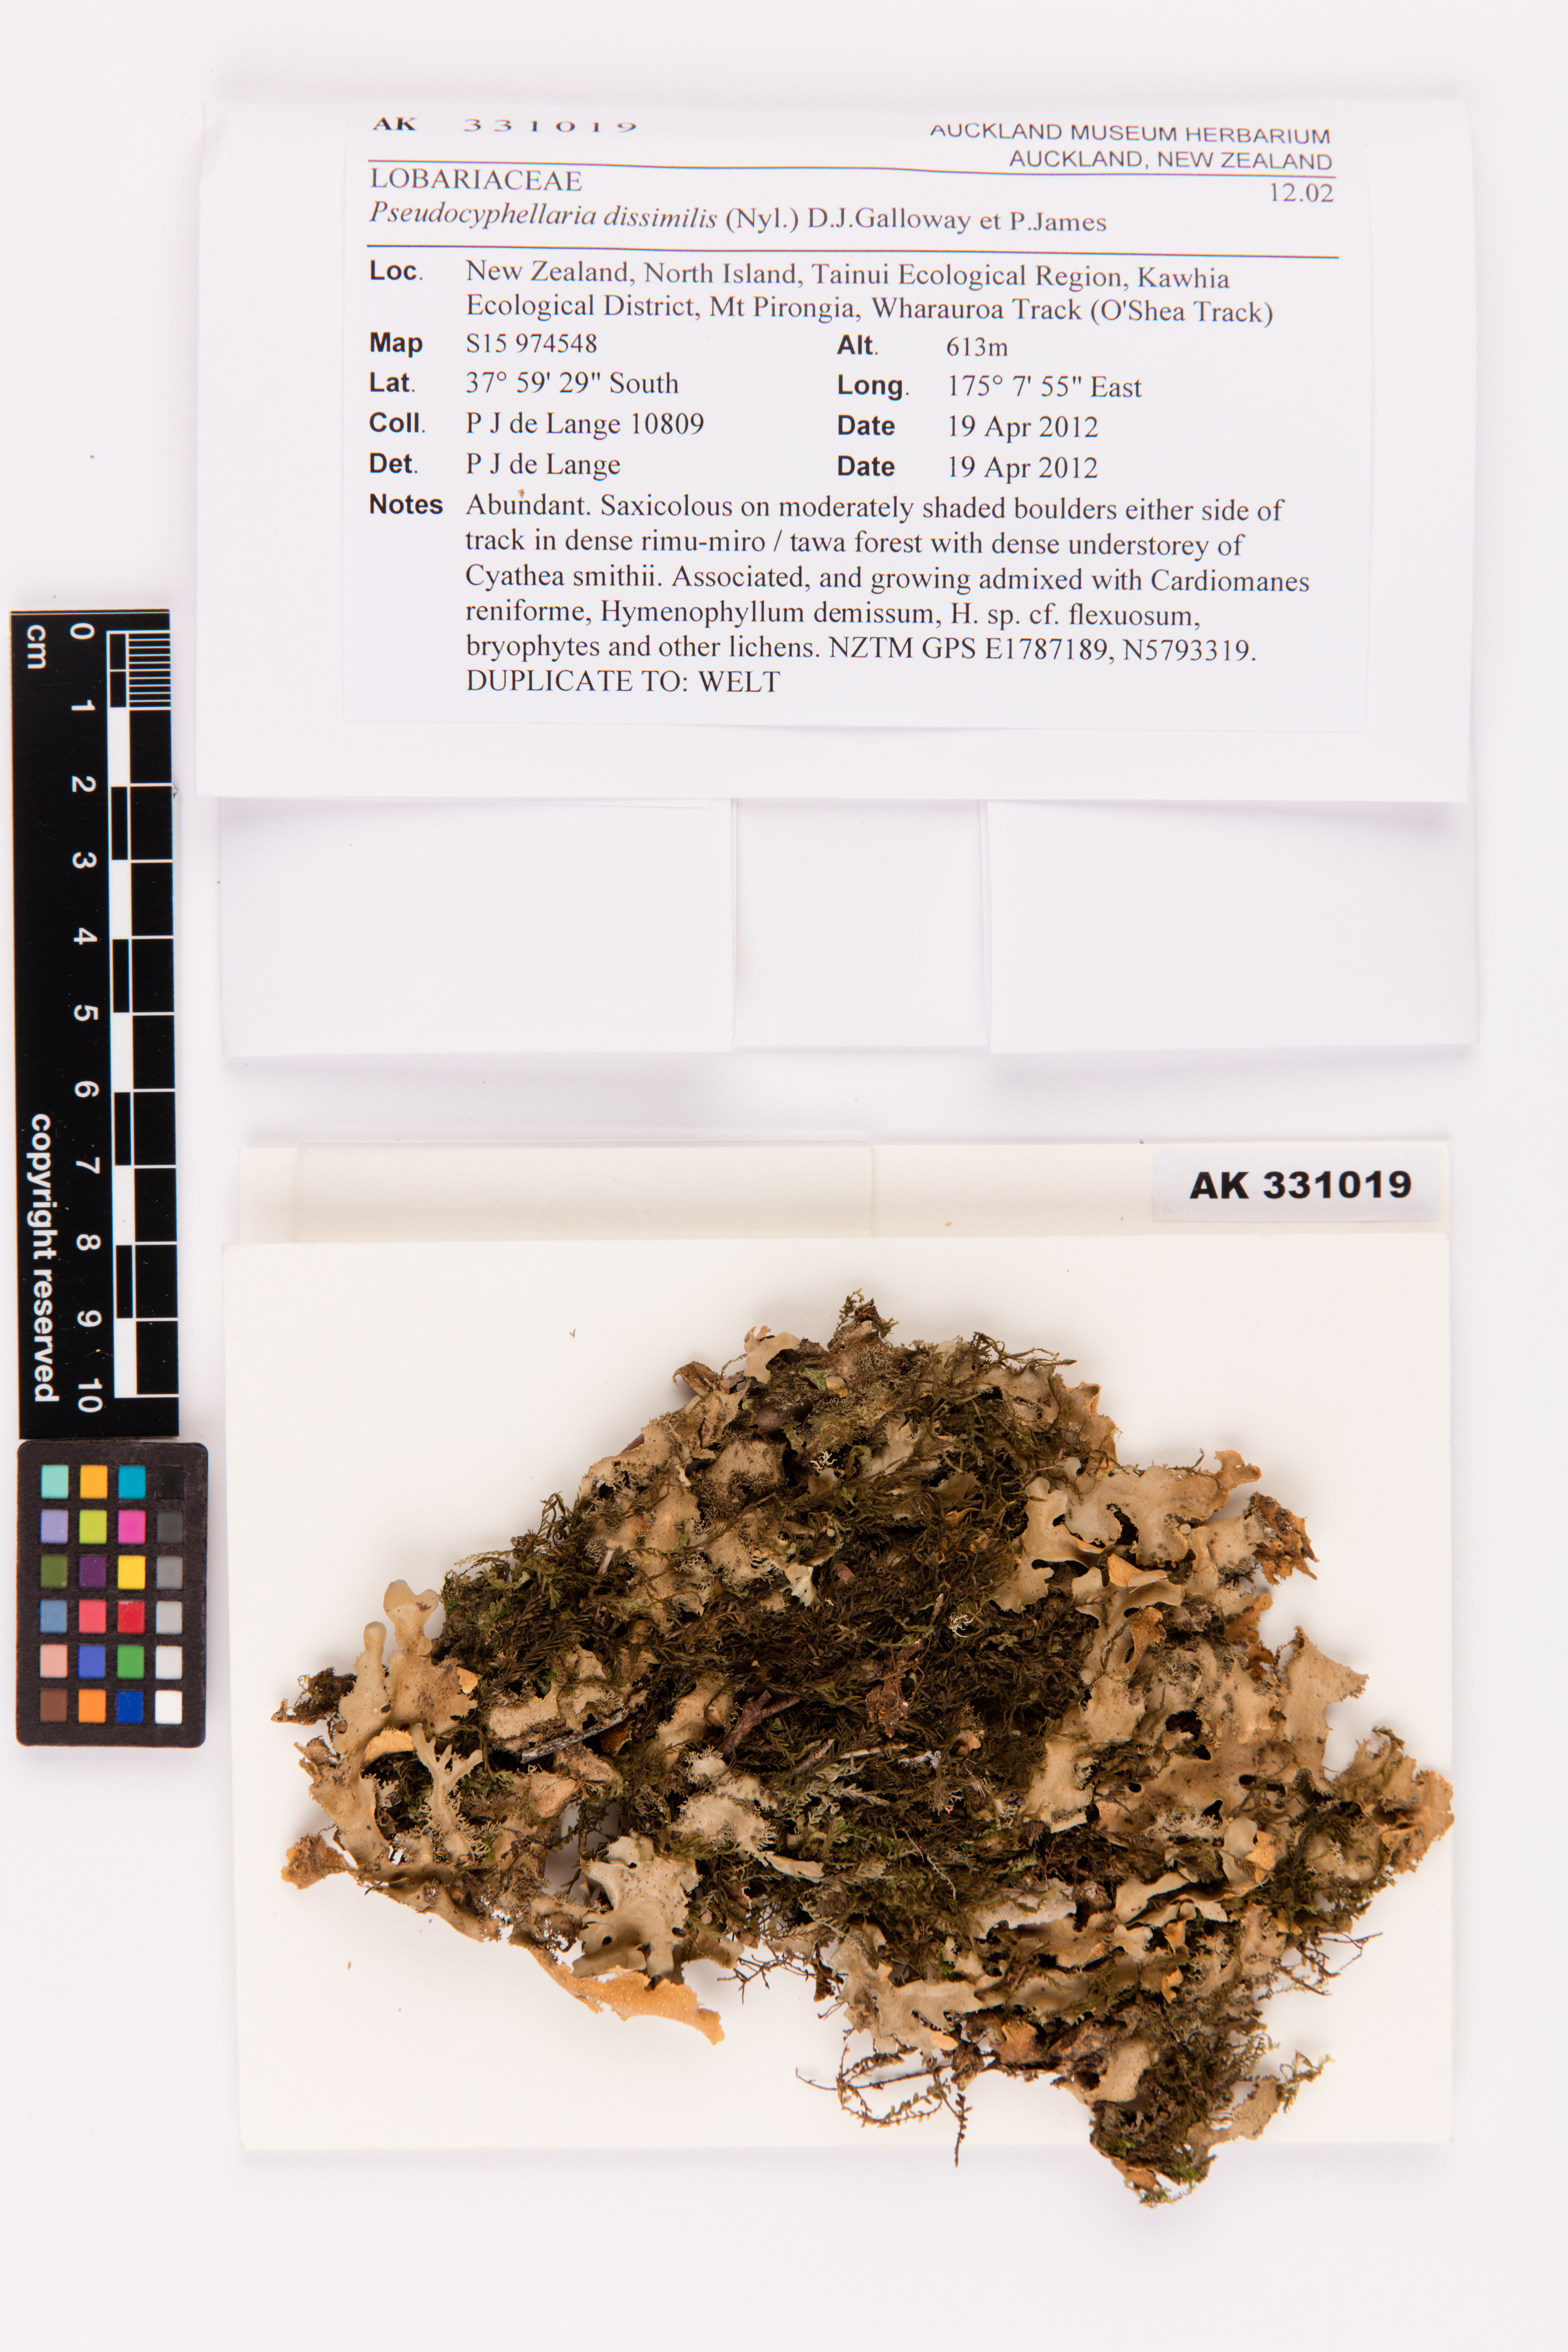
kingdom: Fungi
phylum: Ascomycota
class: Lecanoromycetes
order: Peltigerales
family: Lobariaceae
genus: Pseudocyphellaria
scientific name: Pseudocyphellaria dissimilis
